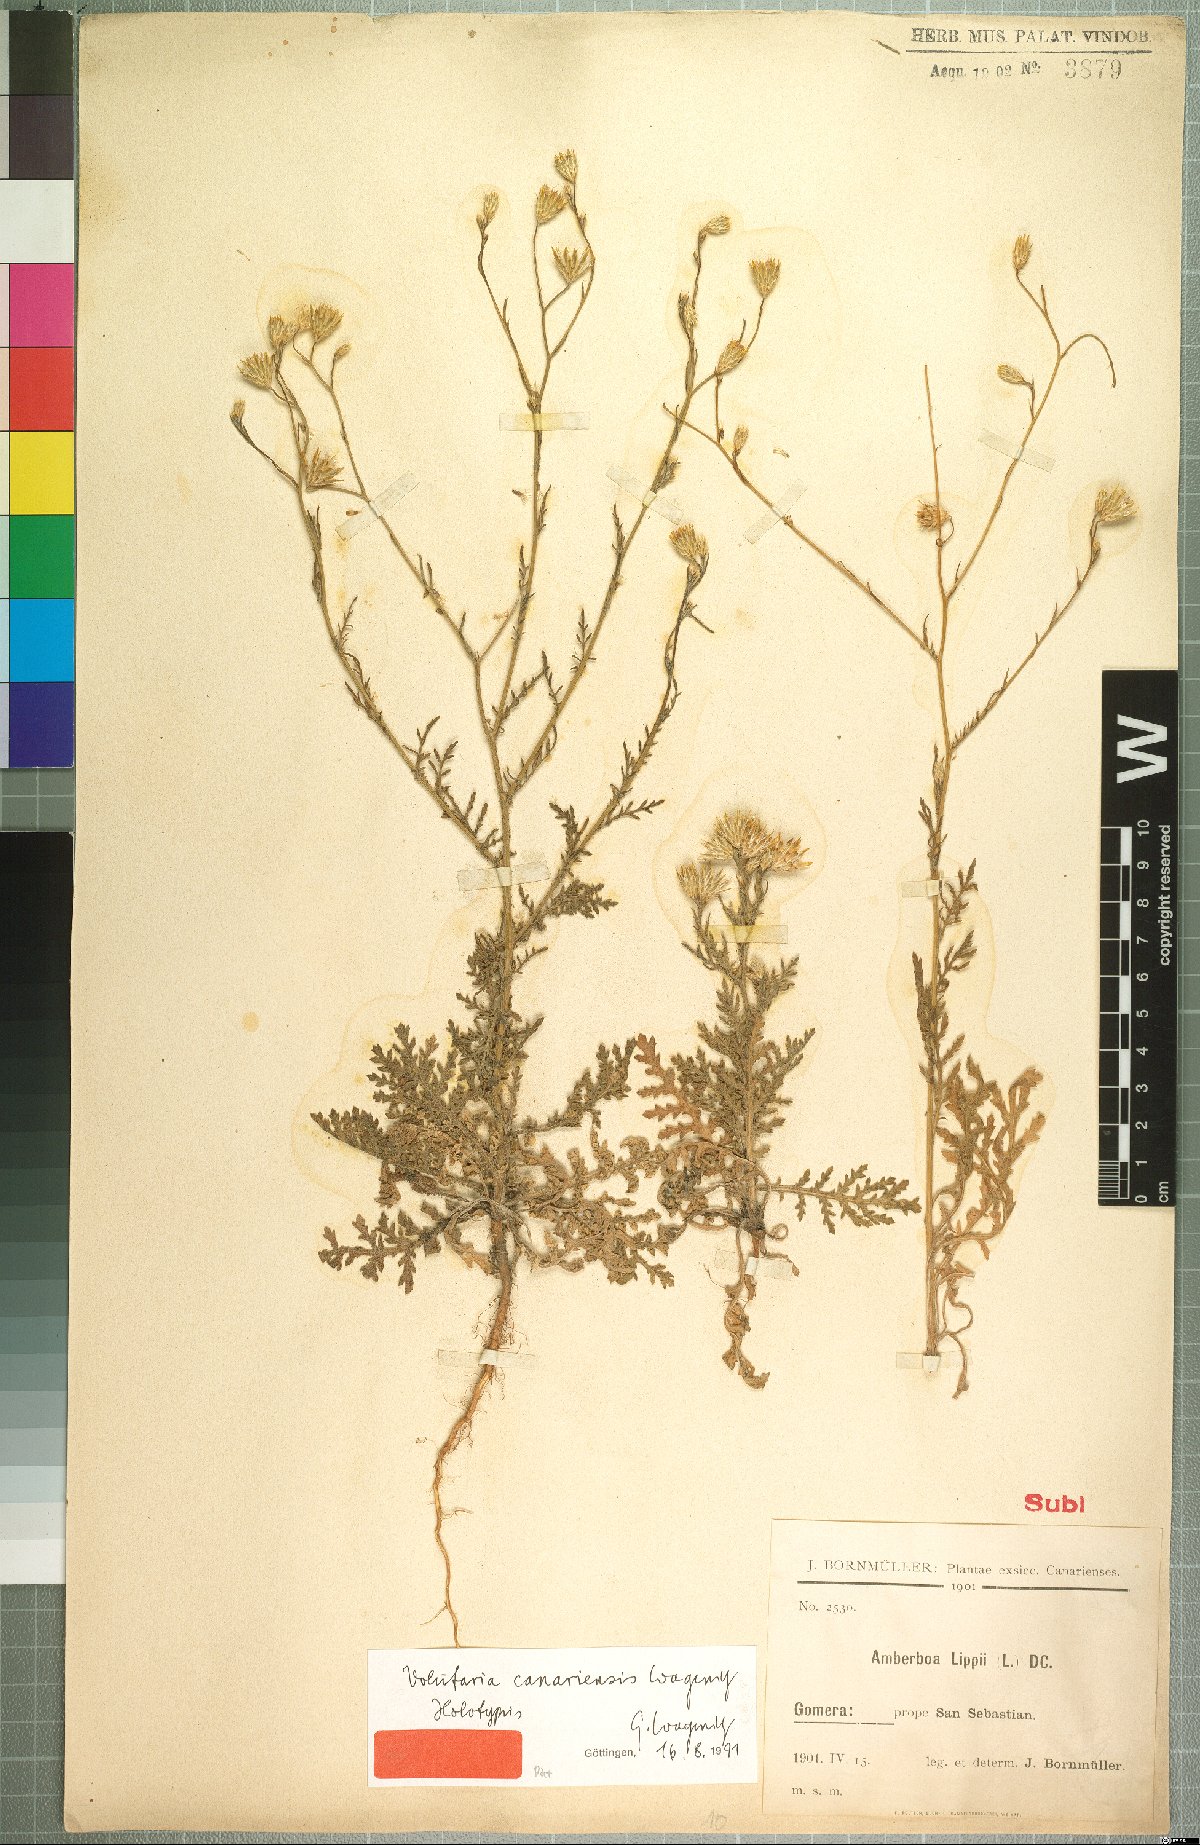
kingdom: Plantae
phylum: Tracheophyta
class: Magnoliopsida
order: Asterales
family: Asteraceae
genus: Volutaria
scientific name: Volutaria canariensis
